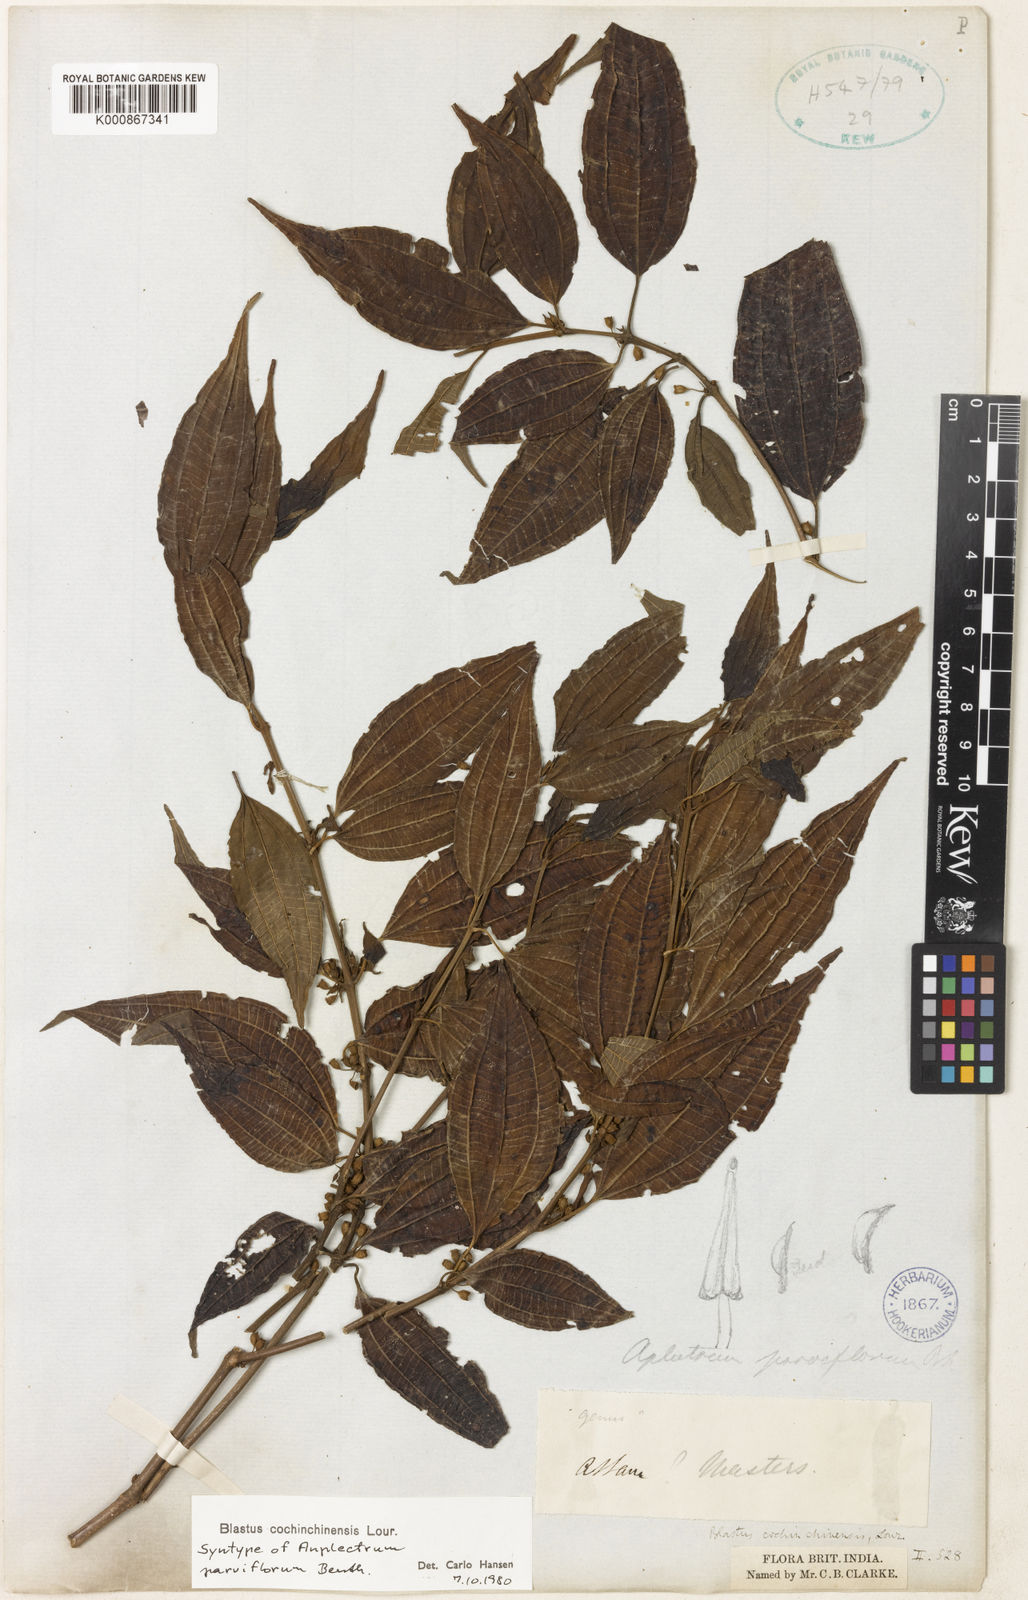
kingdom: Plantae
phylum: Tracheophyta
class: Magnoliopsida
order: Myrtales
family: Melastomataceae
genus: Blastus
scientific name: Blastus cochinchinensis
